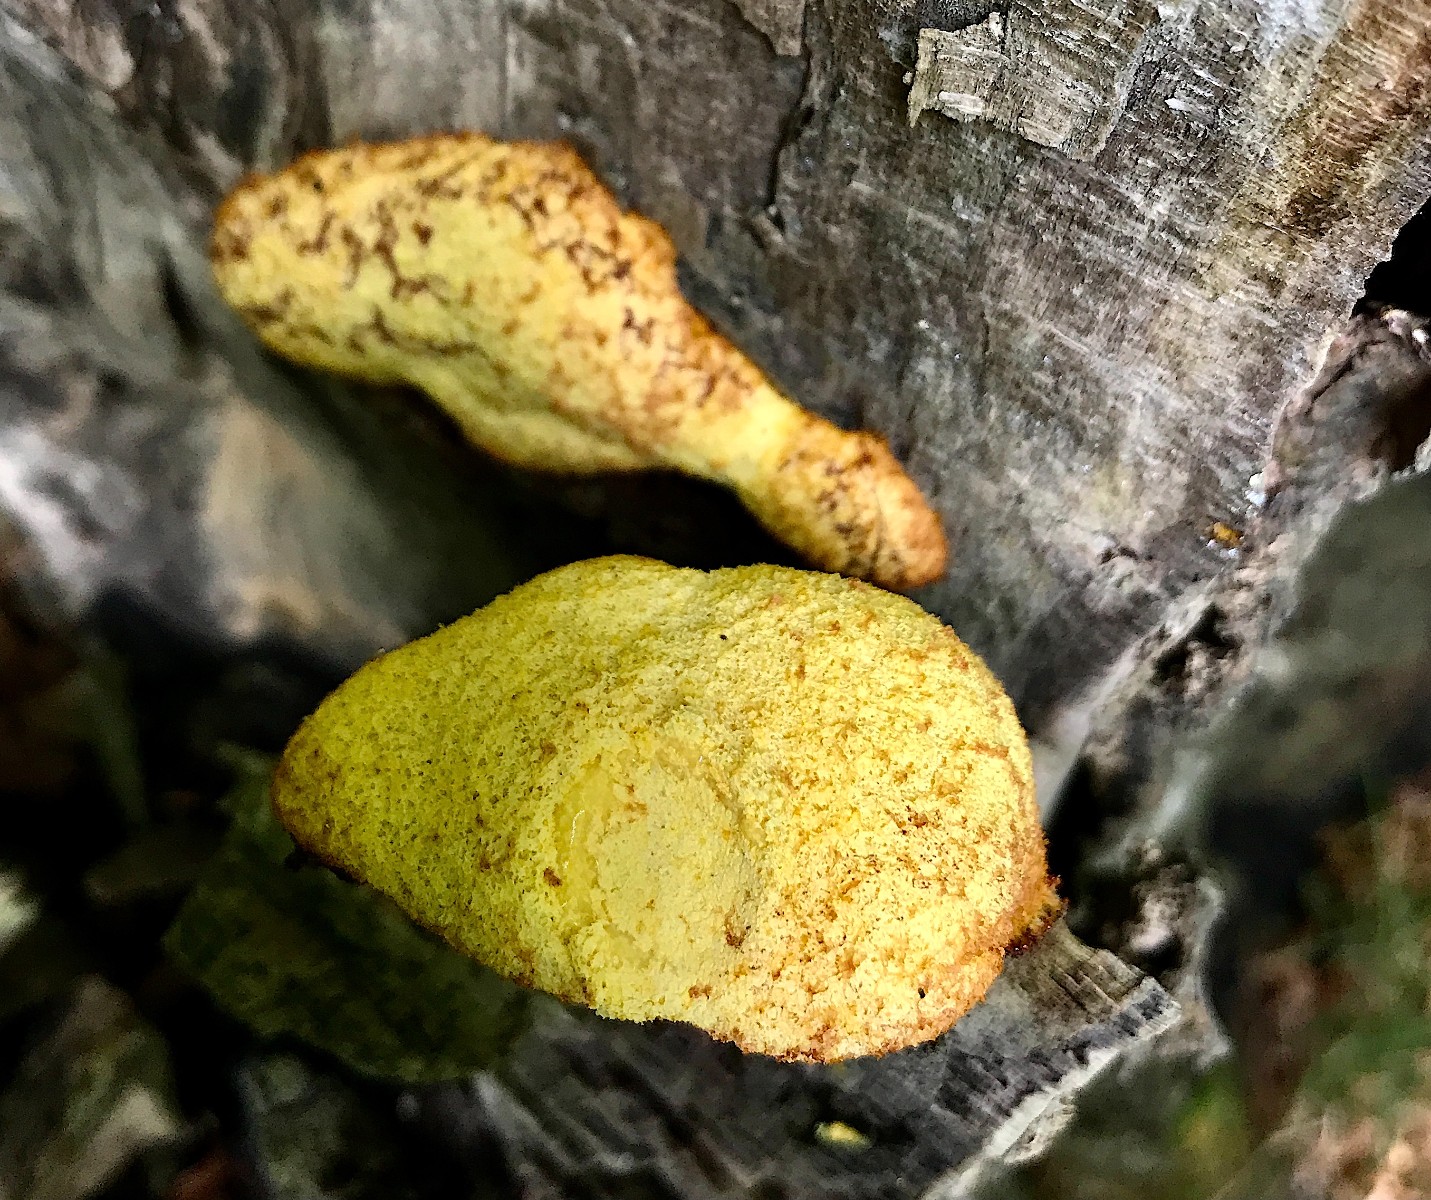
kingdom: Protozoa
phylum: Mycetozoa
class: Myxomycetes
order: Physarales
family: Physaraceae
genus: Fuligo
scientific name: Fuligo septica
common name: gul troldsmør
